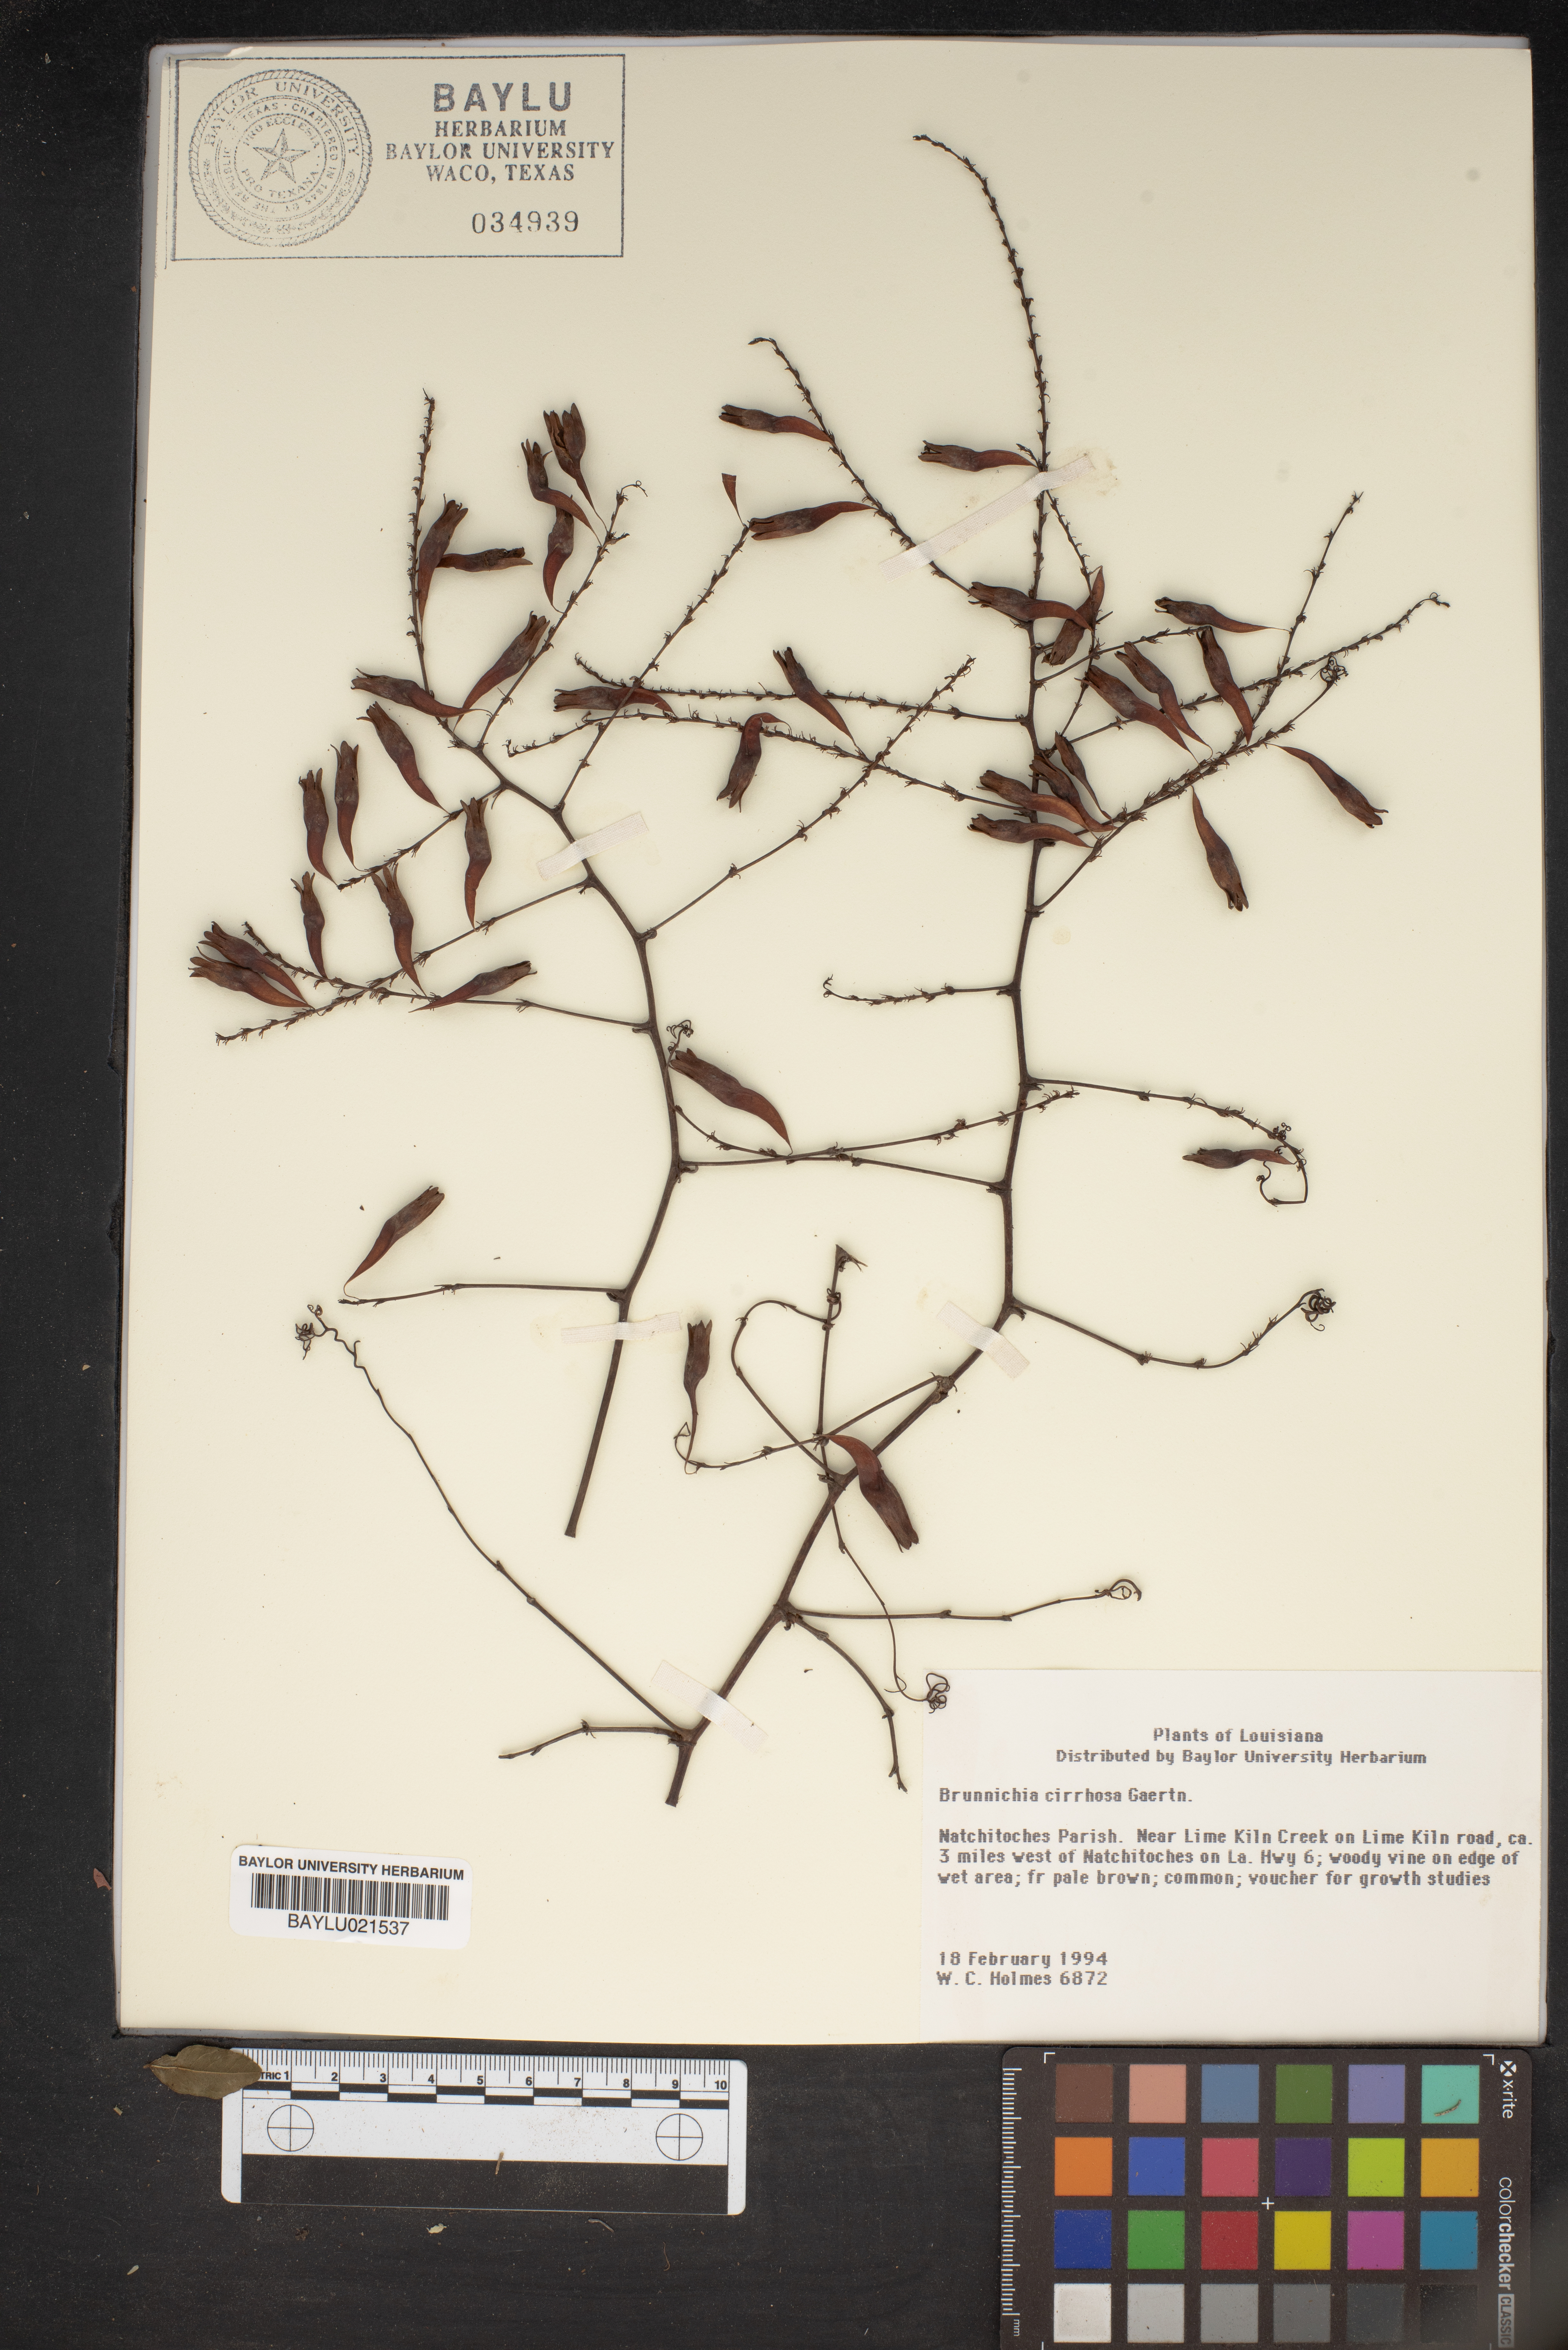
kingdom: Plantae
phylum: Tracheophyta
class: Magnoliopsida
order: Caryophyllales
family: Polygonaceae
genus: Brunnichia
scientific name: Brunnichia ovata
